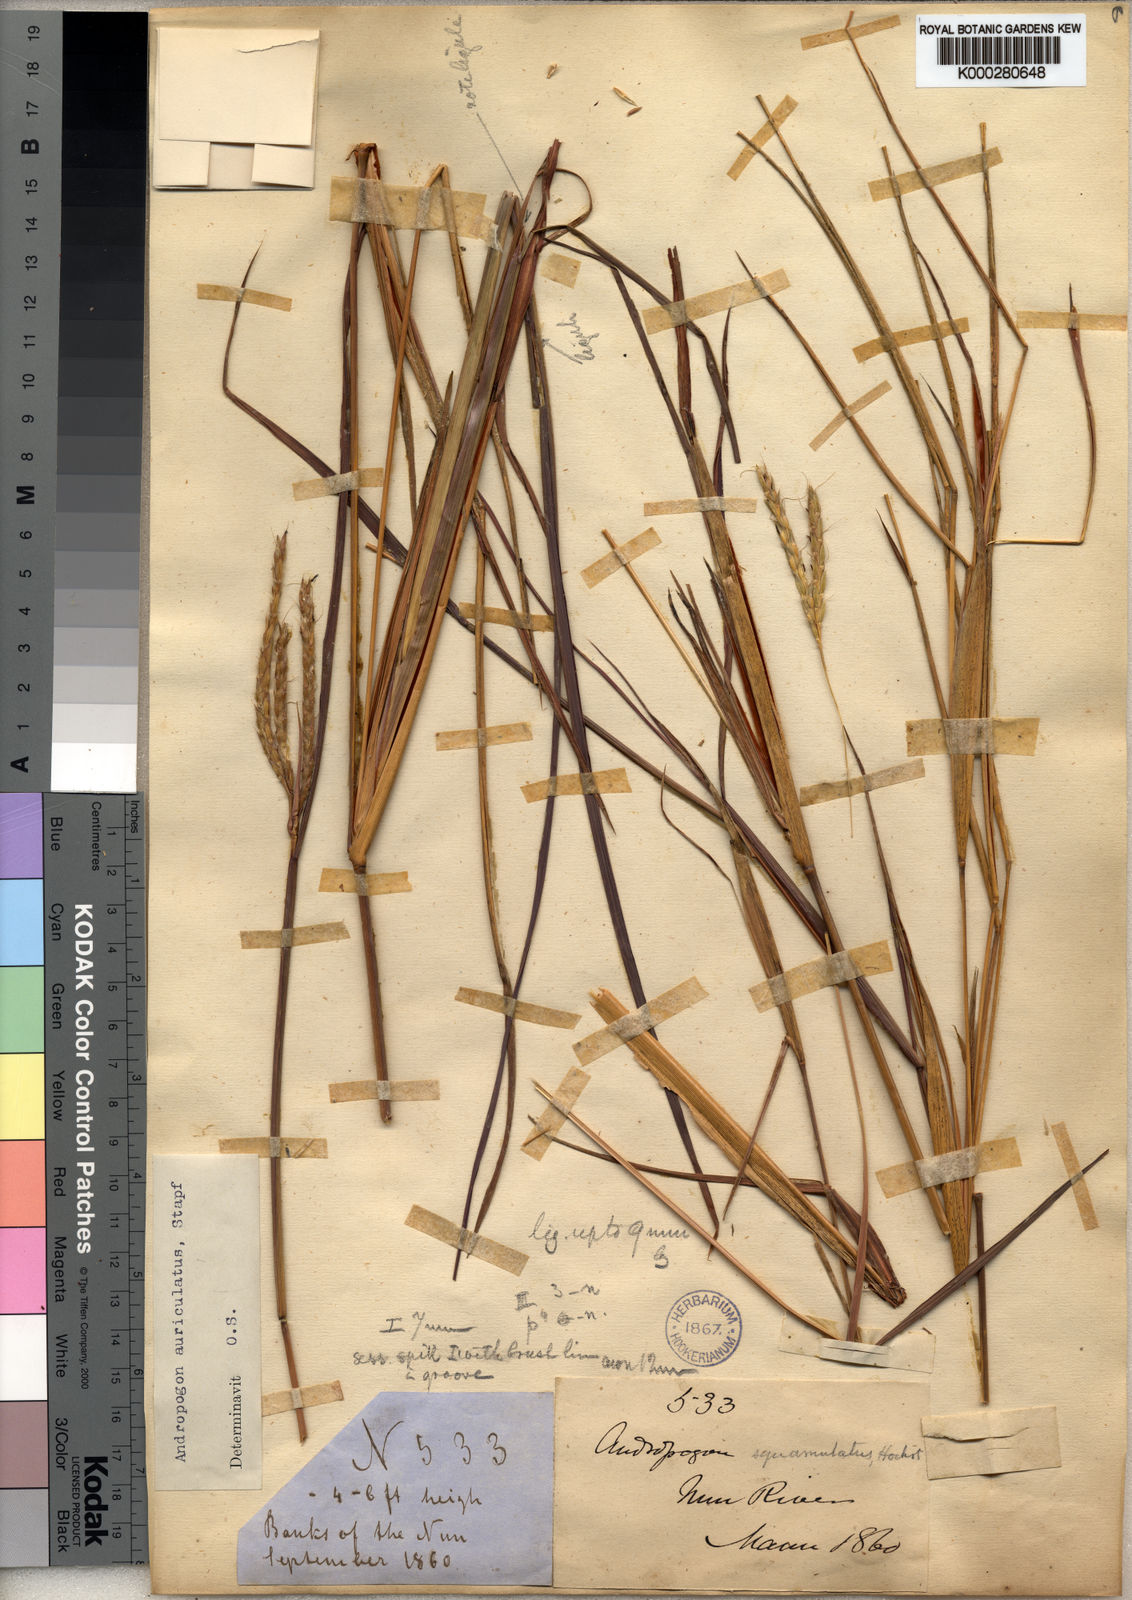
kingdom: Plantae
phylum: Tracheophyta
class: Liliopsida
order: Poales
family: Poaceae
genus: Andropogon
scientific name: Andropogon auriculatus
